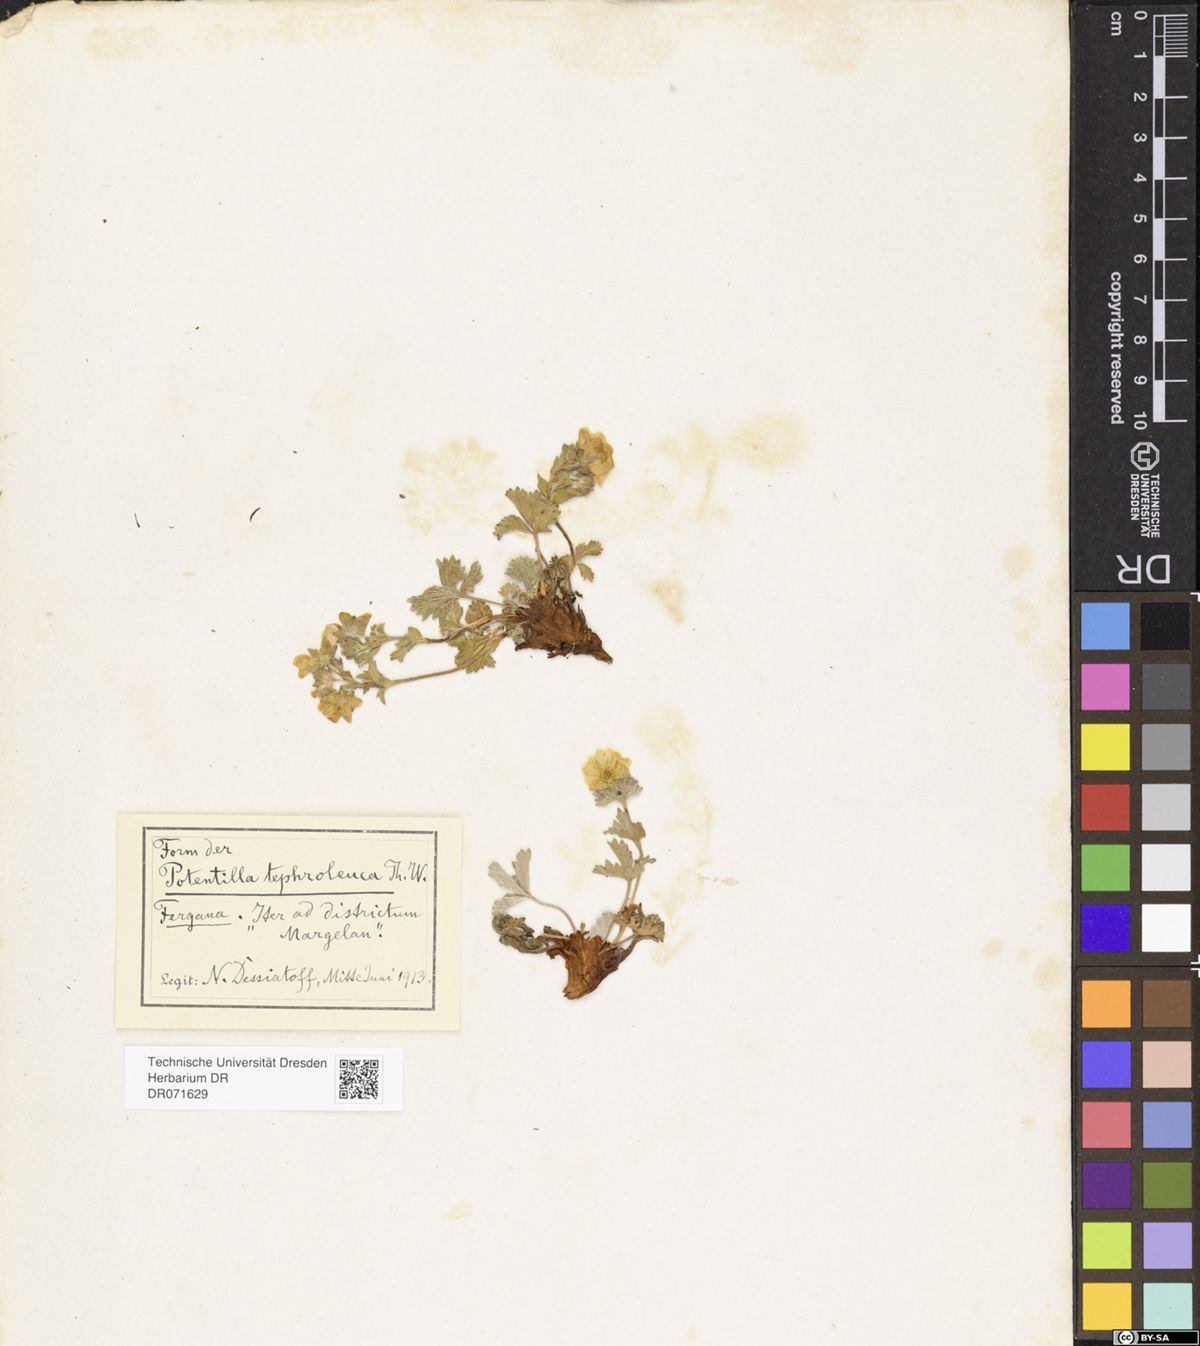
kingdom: Plantae
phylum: Tracheophyta
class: Magnoliopsida
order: Rosales
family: Rosaceae
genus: Potentilla
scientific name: Potentilla tephroleuca
